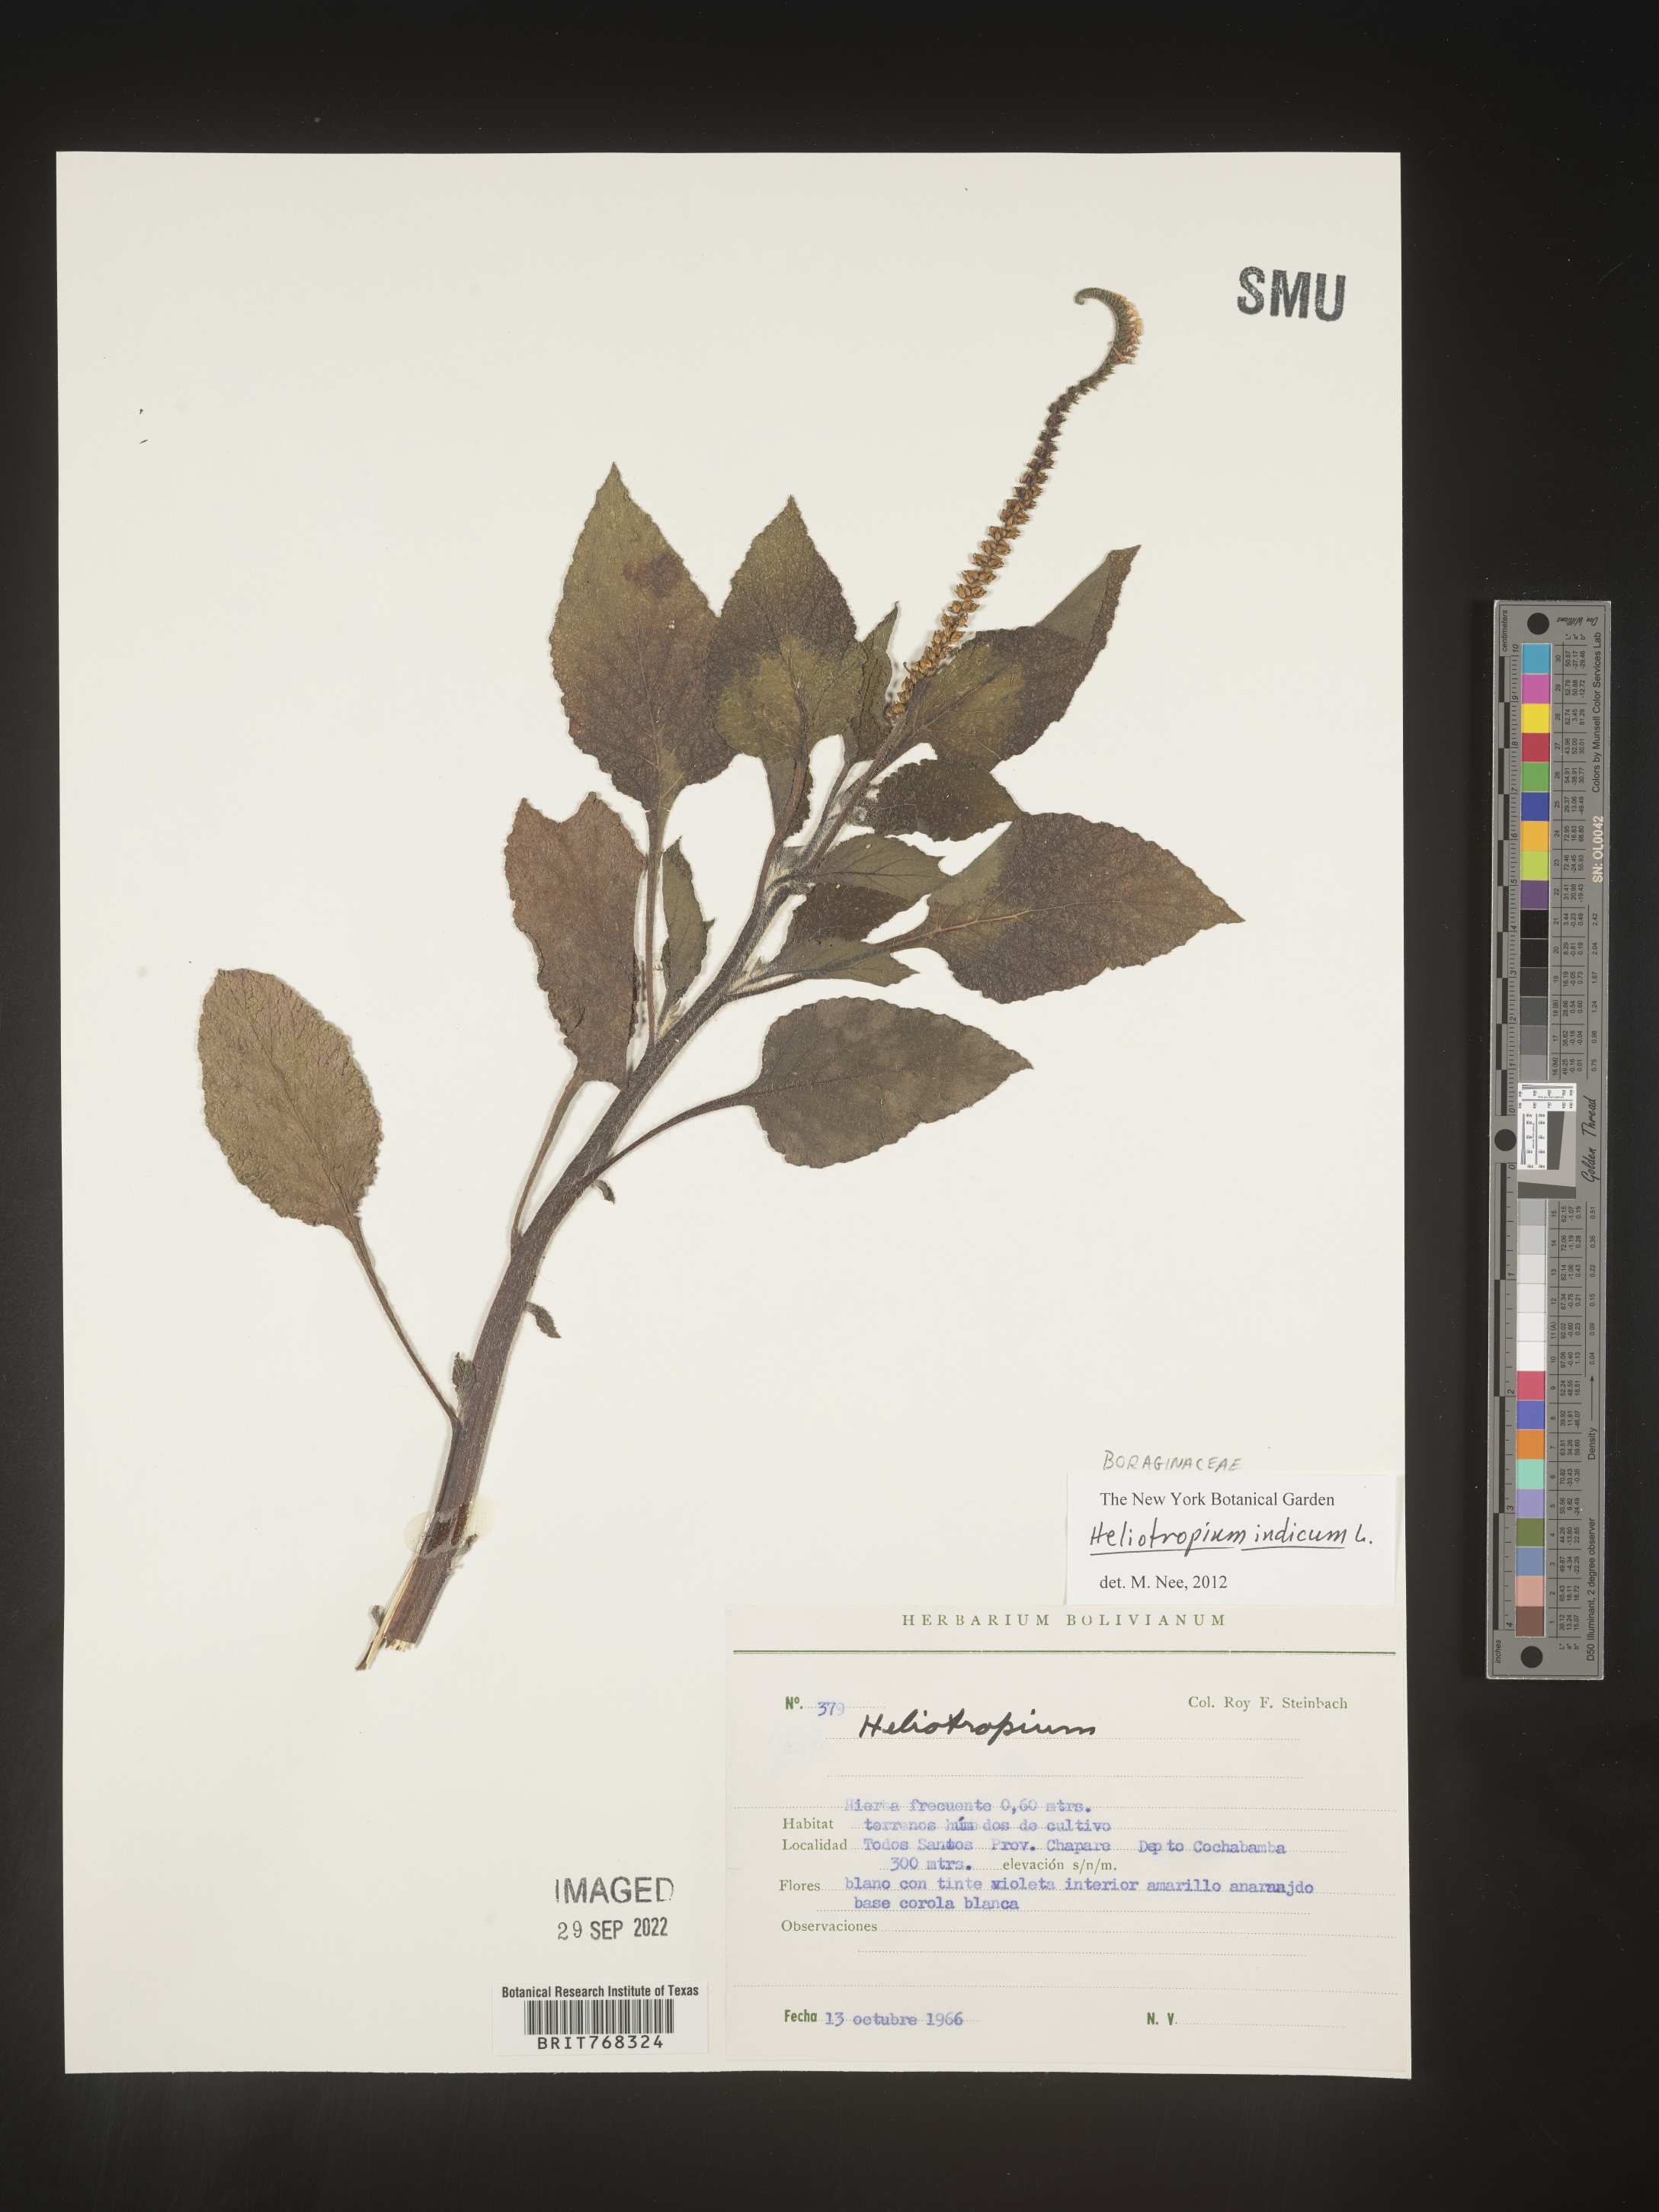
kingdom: Plantae
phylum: Tracheophyta
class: Magnoliopsida
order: Boraginales
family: Heliotropiaceae
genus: Heliotropium
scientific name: Heliotropium
